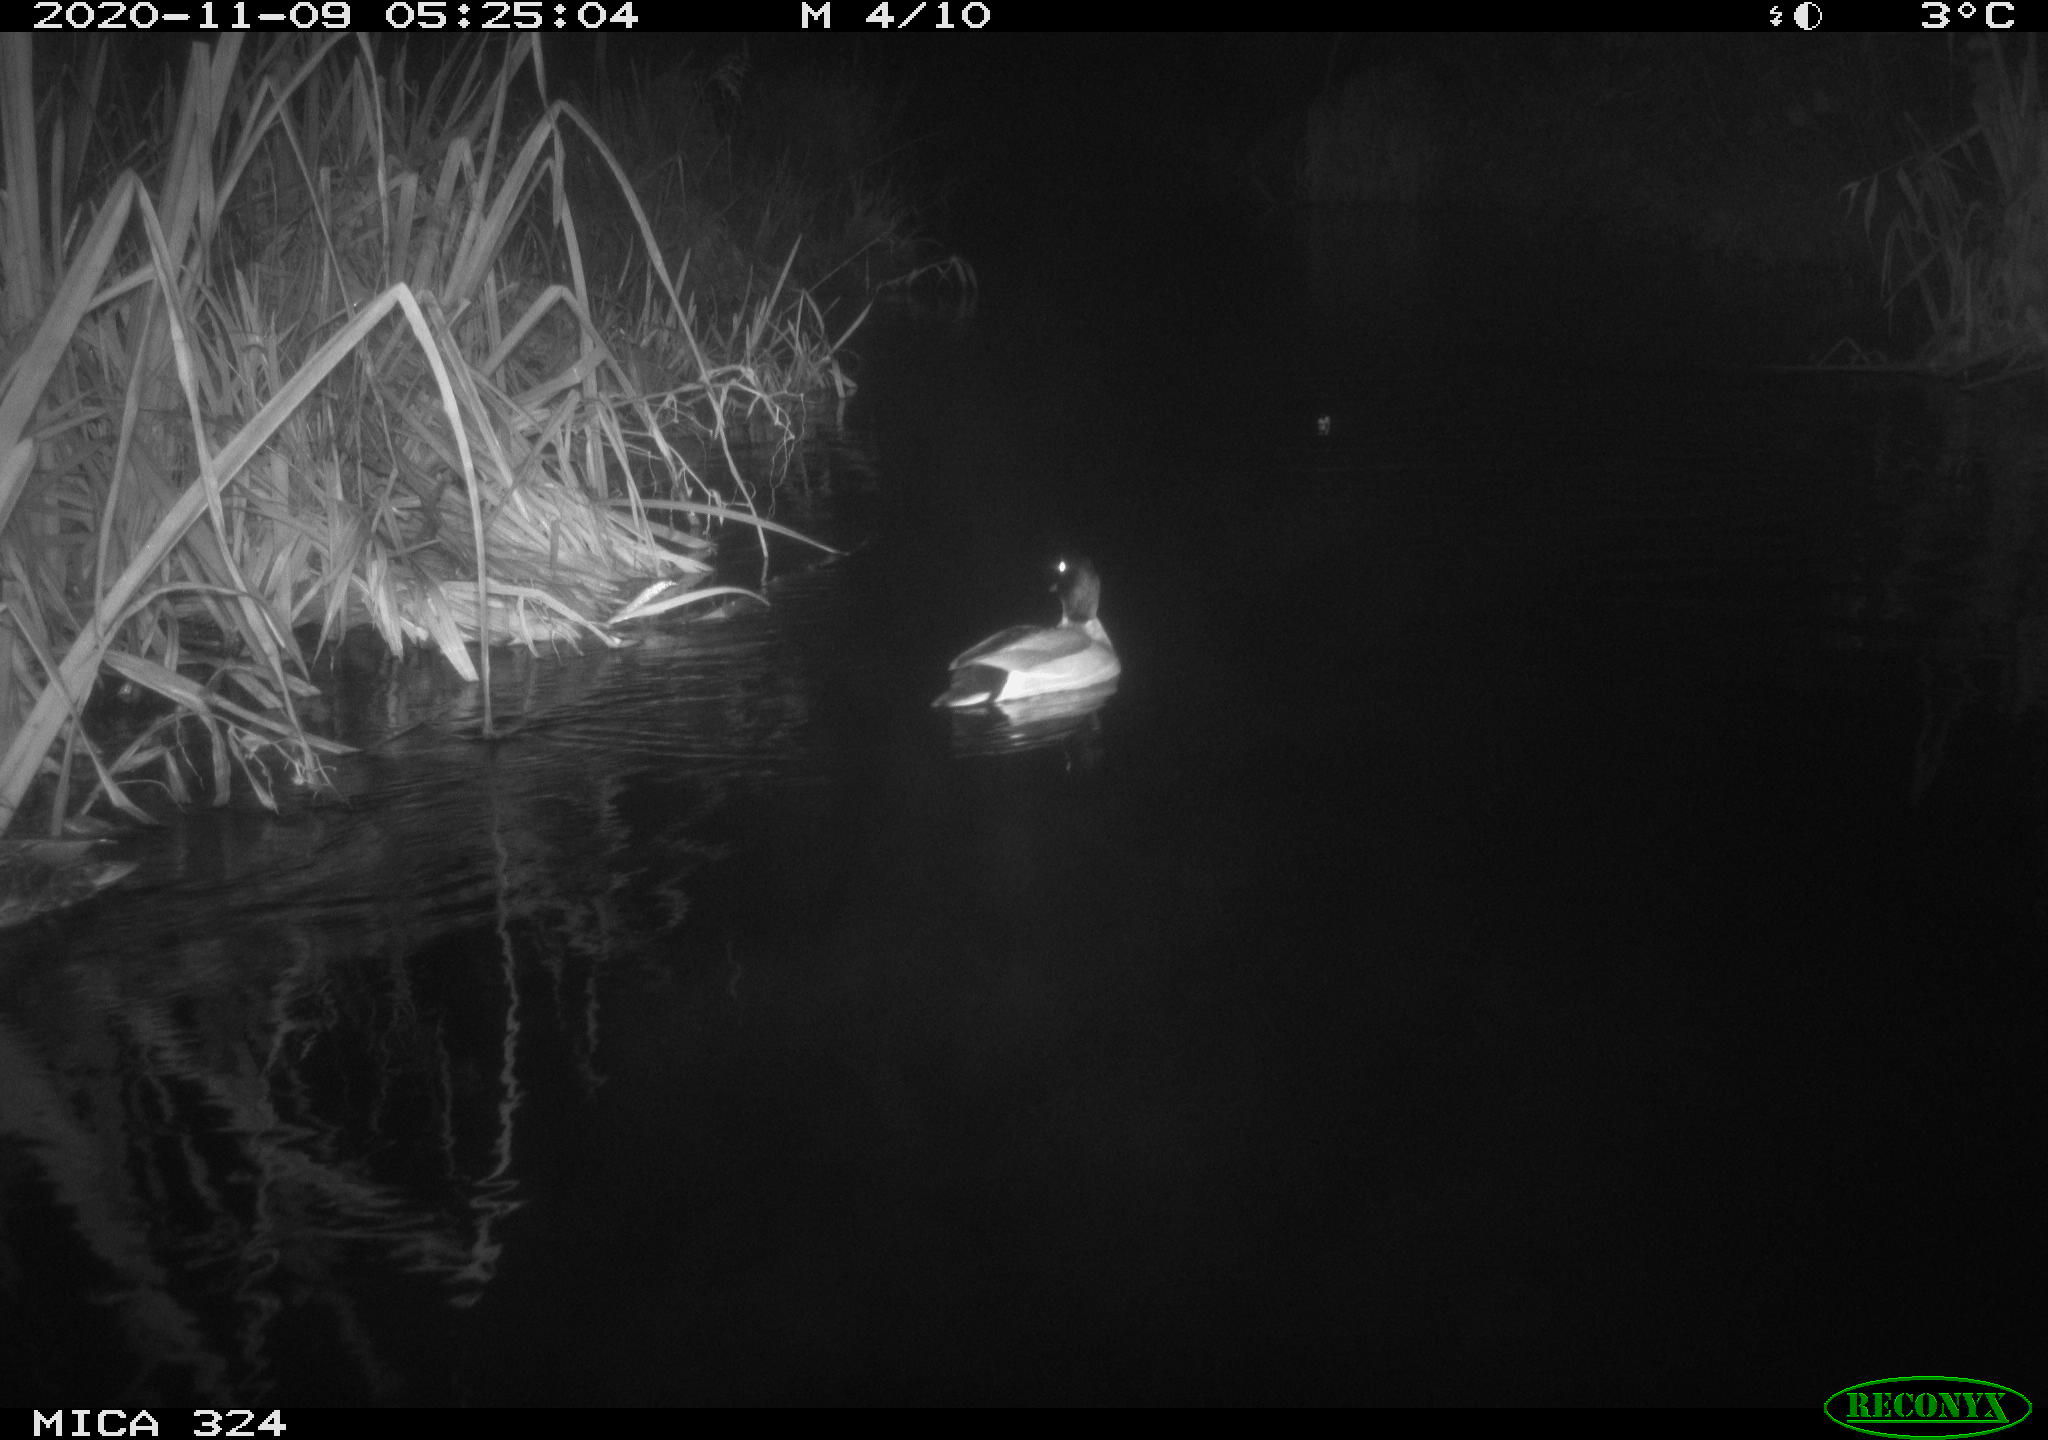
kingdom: Animalia
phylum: Chordata
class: Aves
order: Anseriformes
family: Anatidae
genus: Anas
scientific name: Anas platyrhynchos
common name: Mallard
